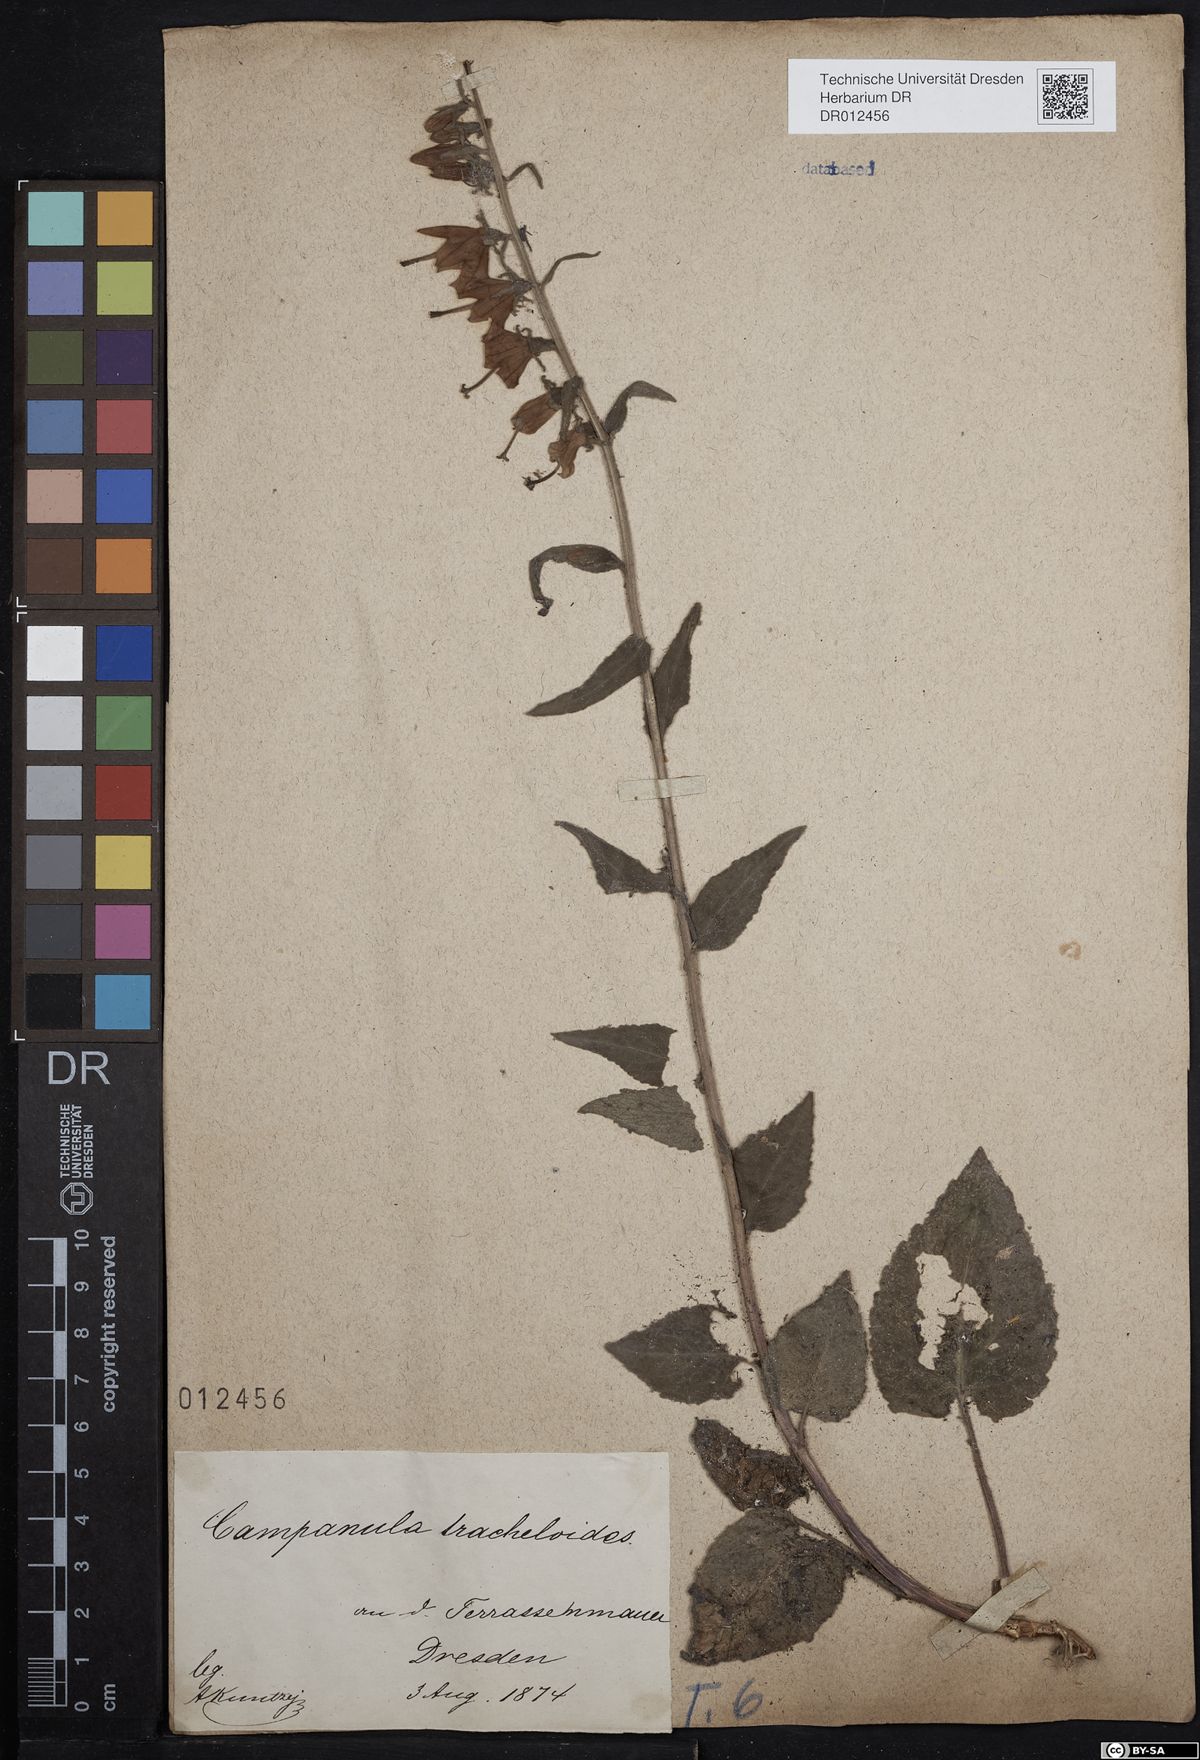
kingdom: Plantae
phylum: Tracheophyta
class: Magnoliopsida
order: Asterales
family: Campanulaceae
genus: Campanula
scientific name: Campanula rapunculoides
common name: Creeping bellflower
